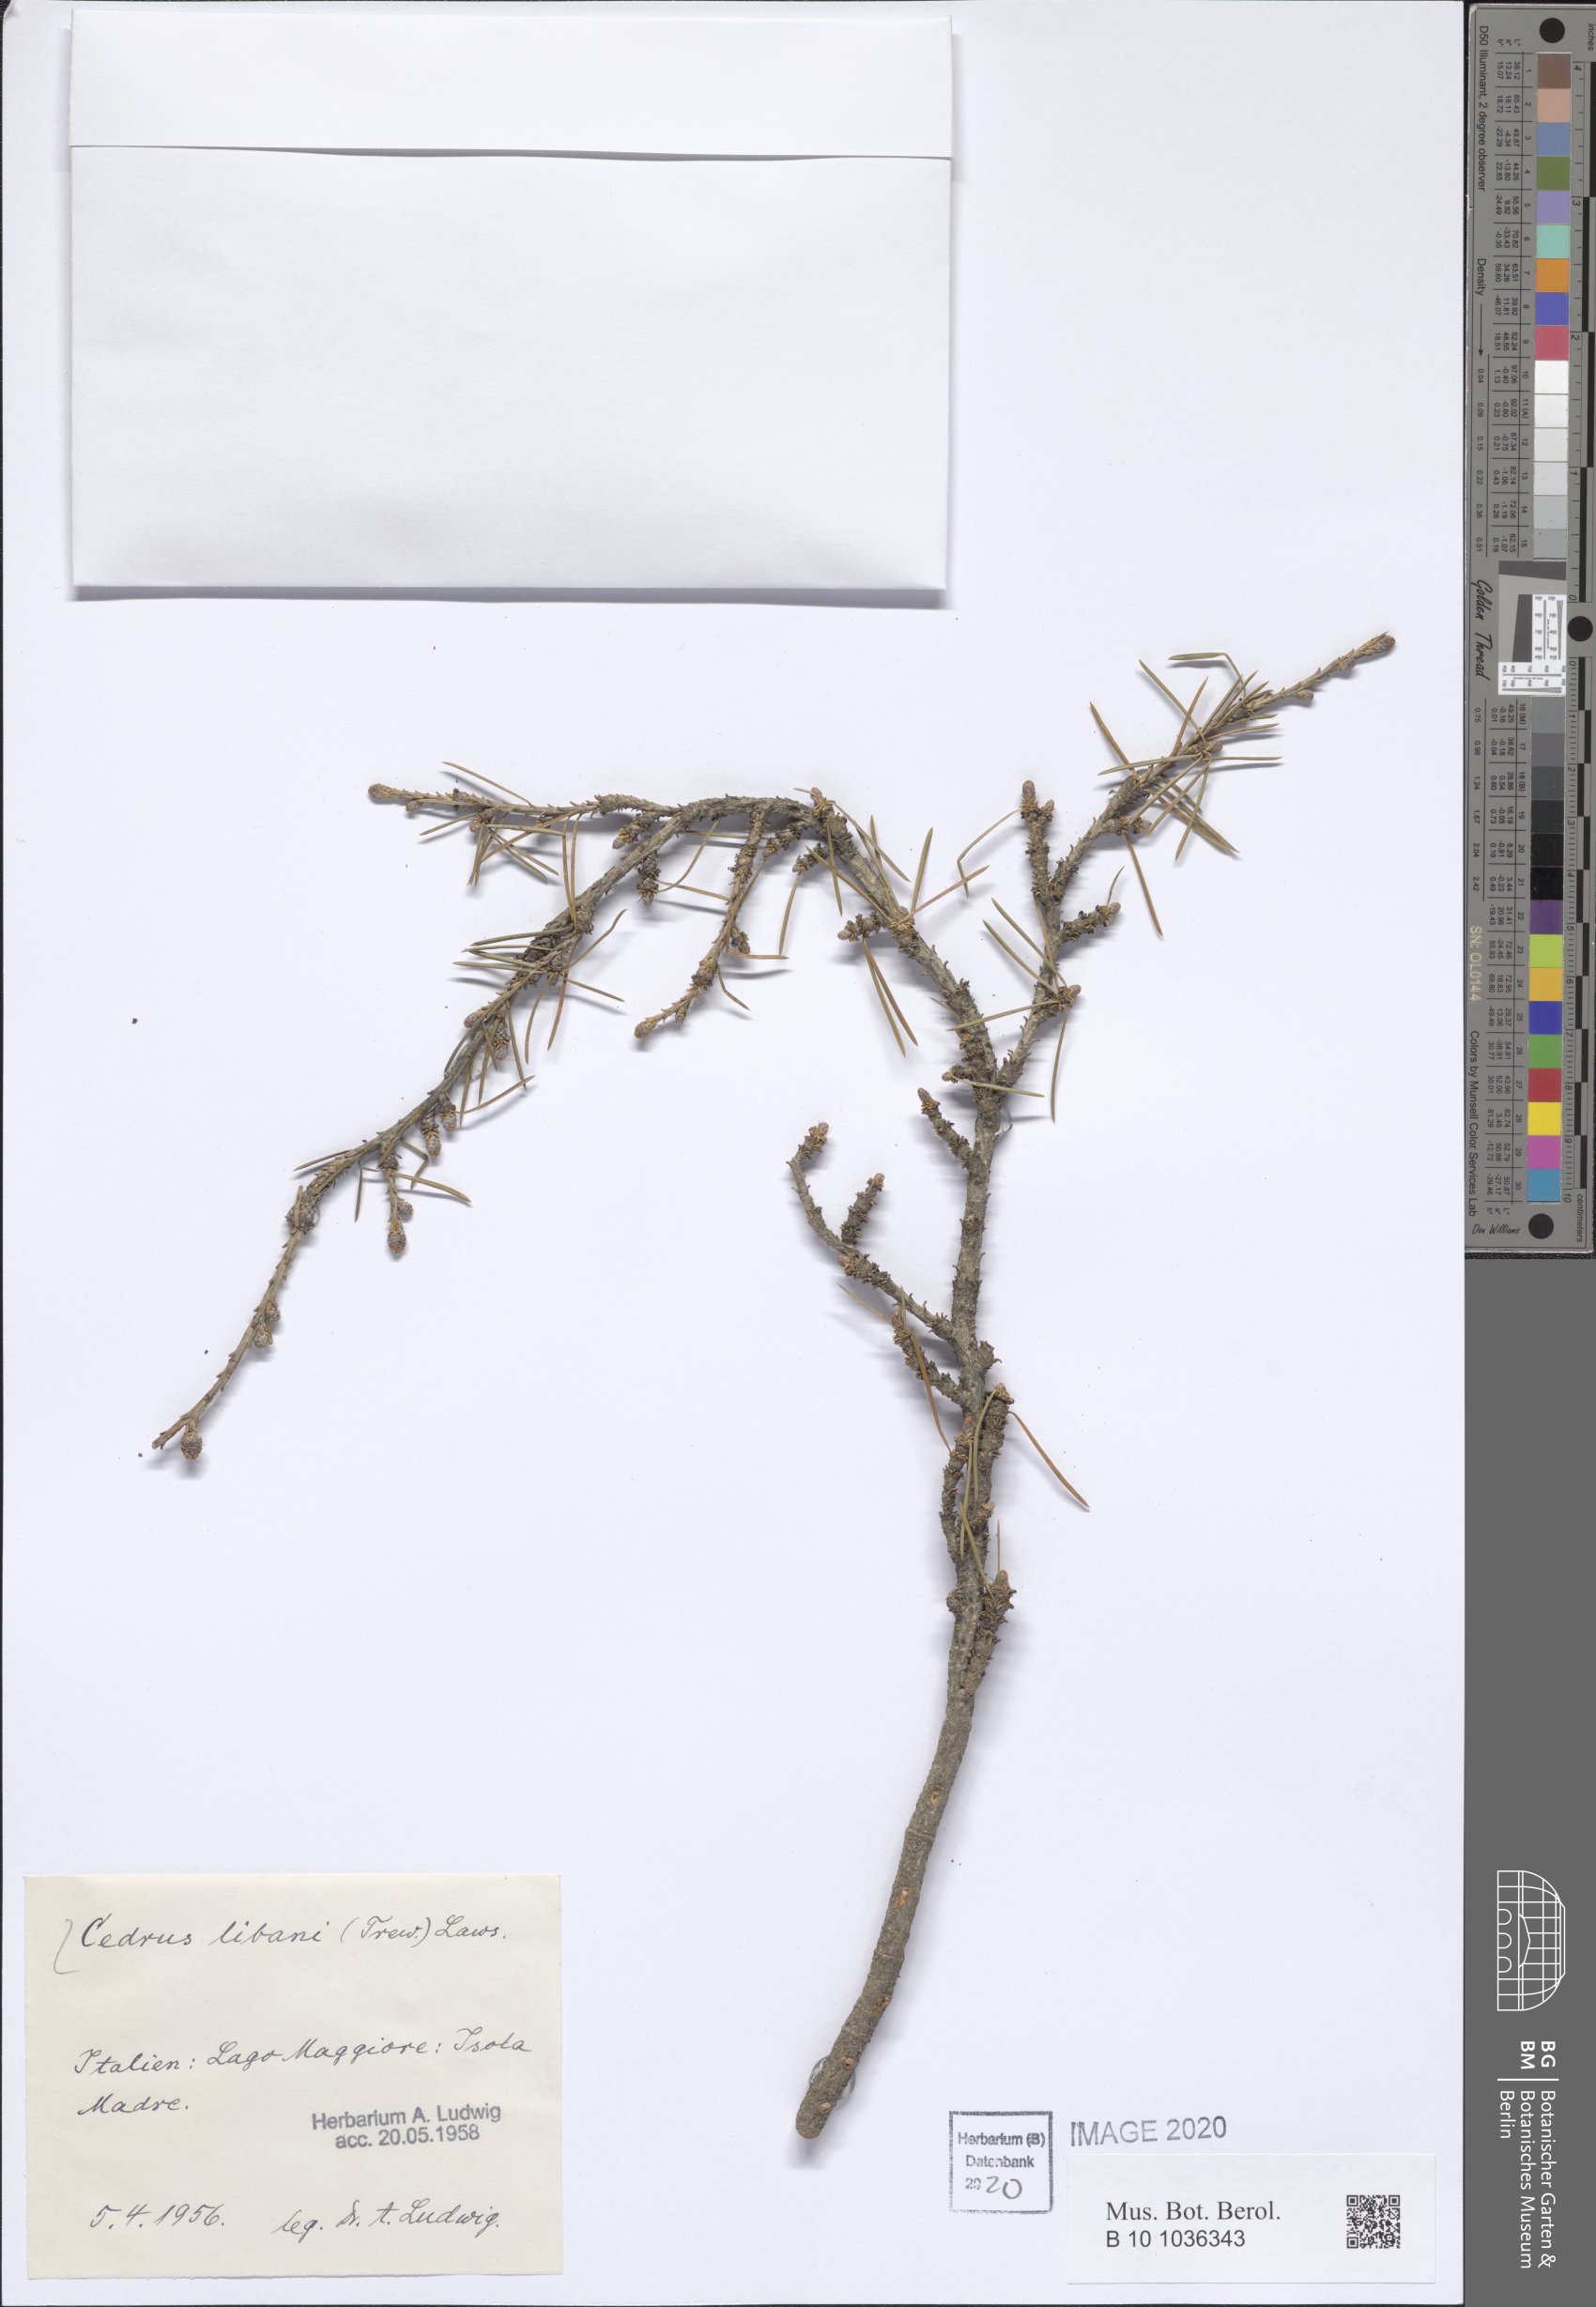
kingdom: Plantae
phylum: Tracheophyta
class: Pinopsida
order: Pinales
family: Pinaceae
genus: Cedrus
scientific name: Cedrus libani
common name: Cedar-of-lebanon
